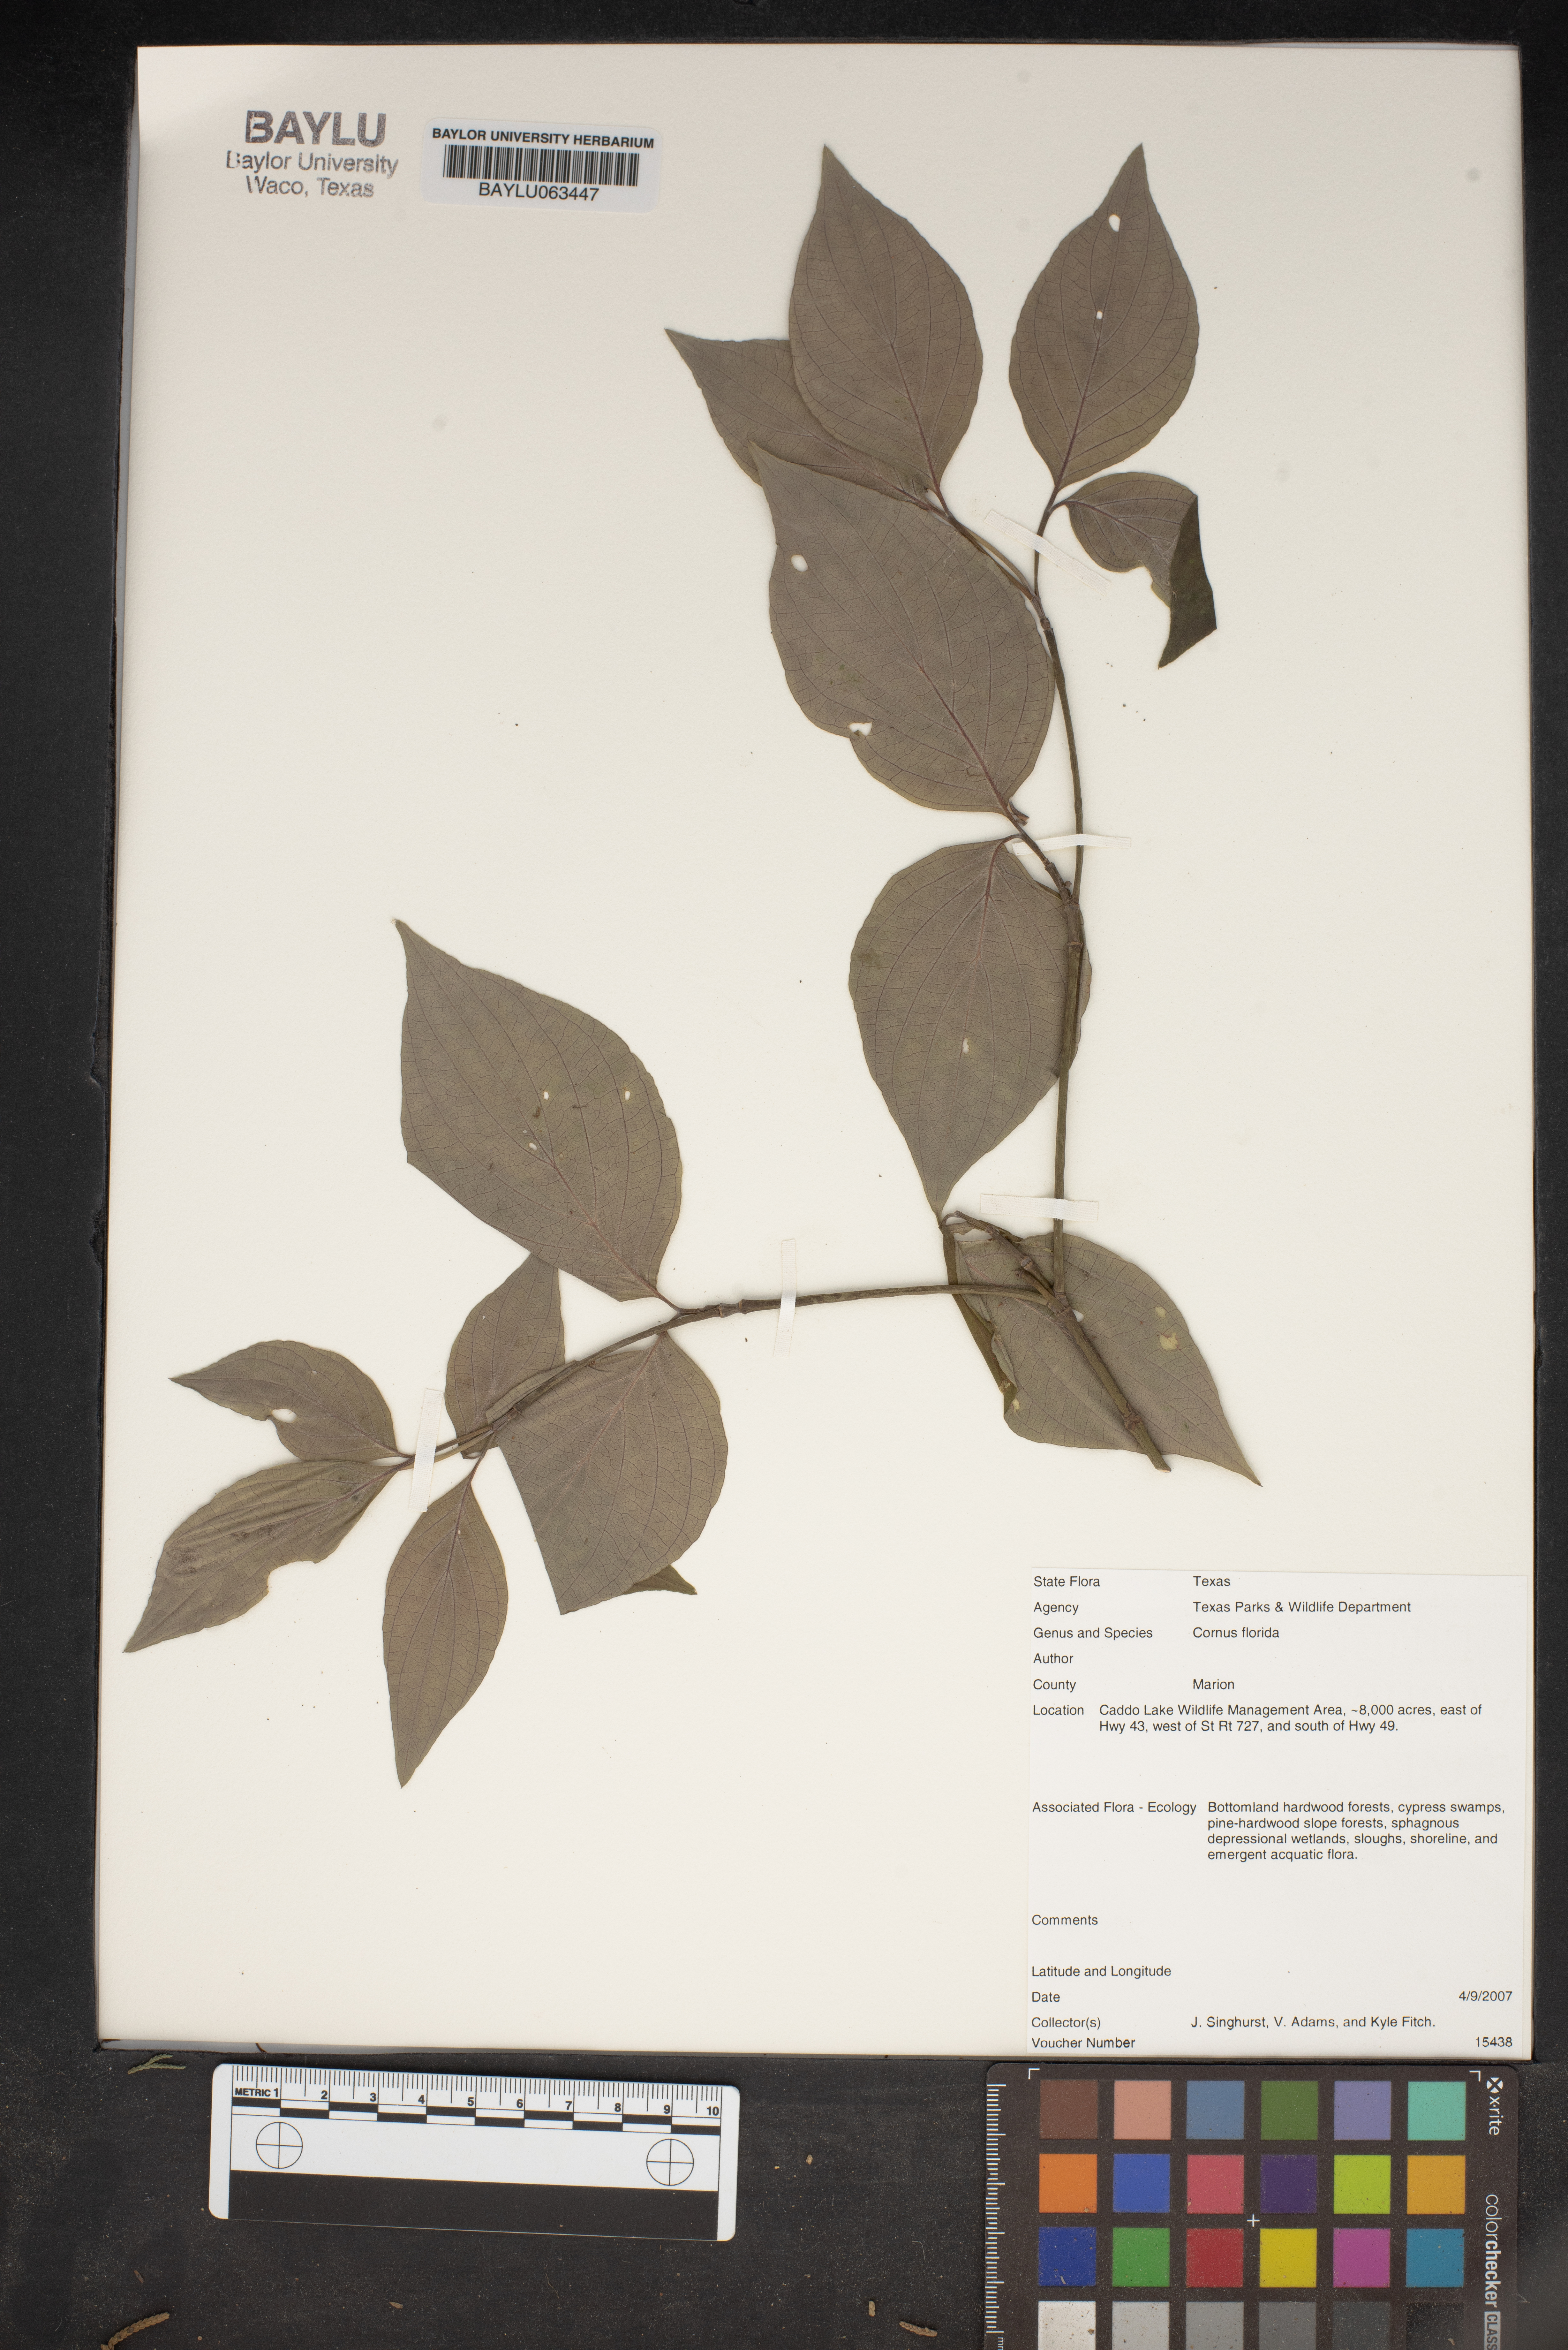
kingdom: Plantae
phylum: Tracheophyta
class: Magnoliopsida
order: Cornales
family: Cornaceae
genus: Cornus
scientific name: Cornus florida
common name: Flowering dogwood
